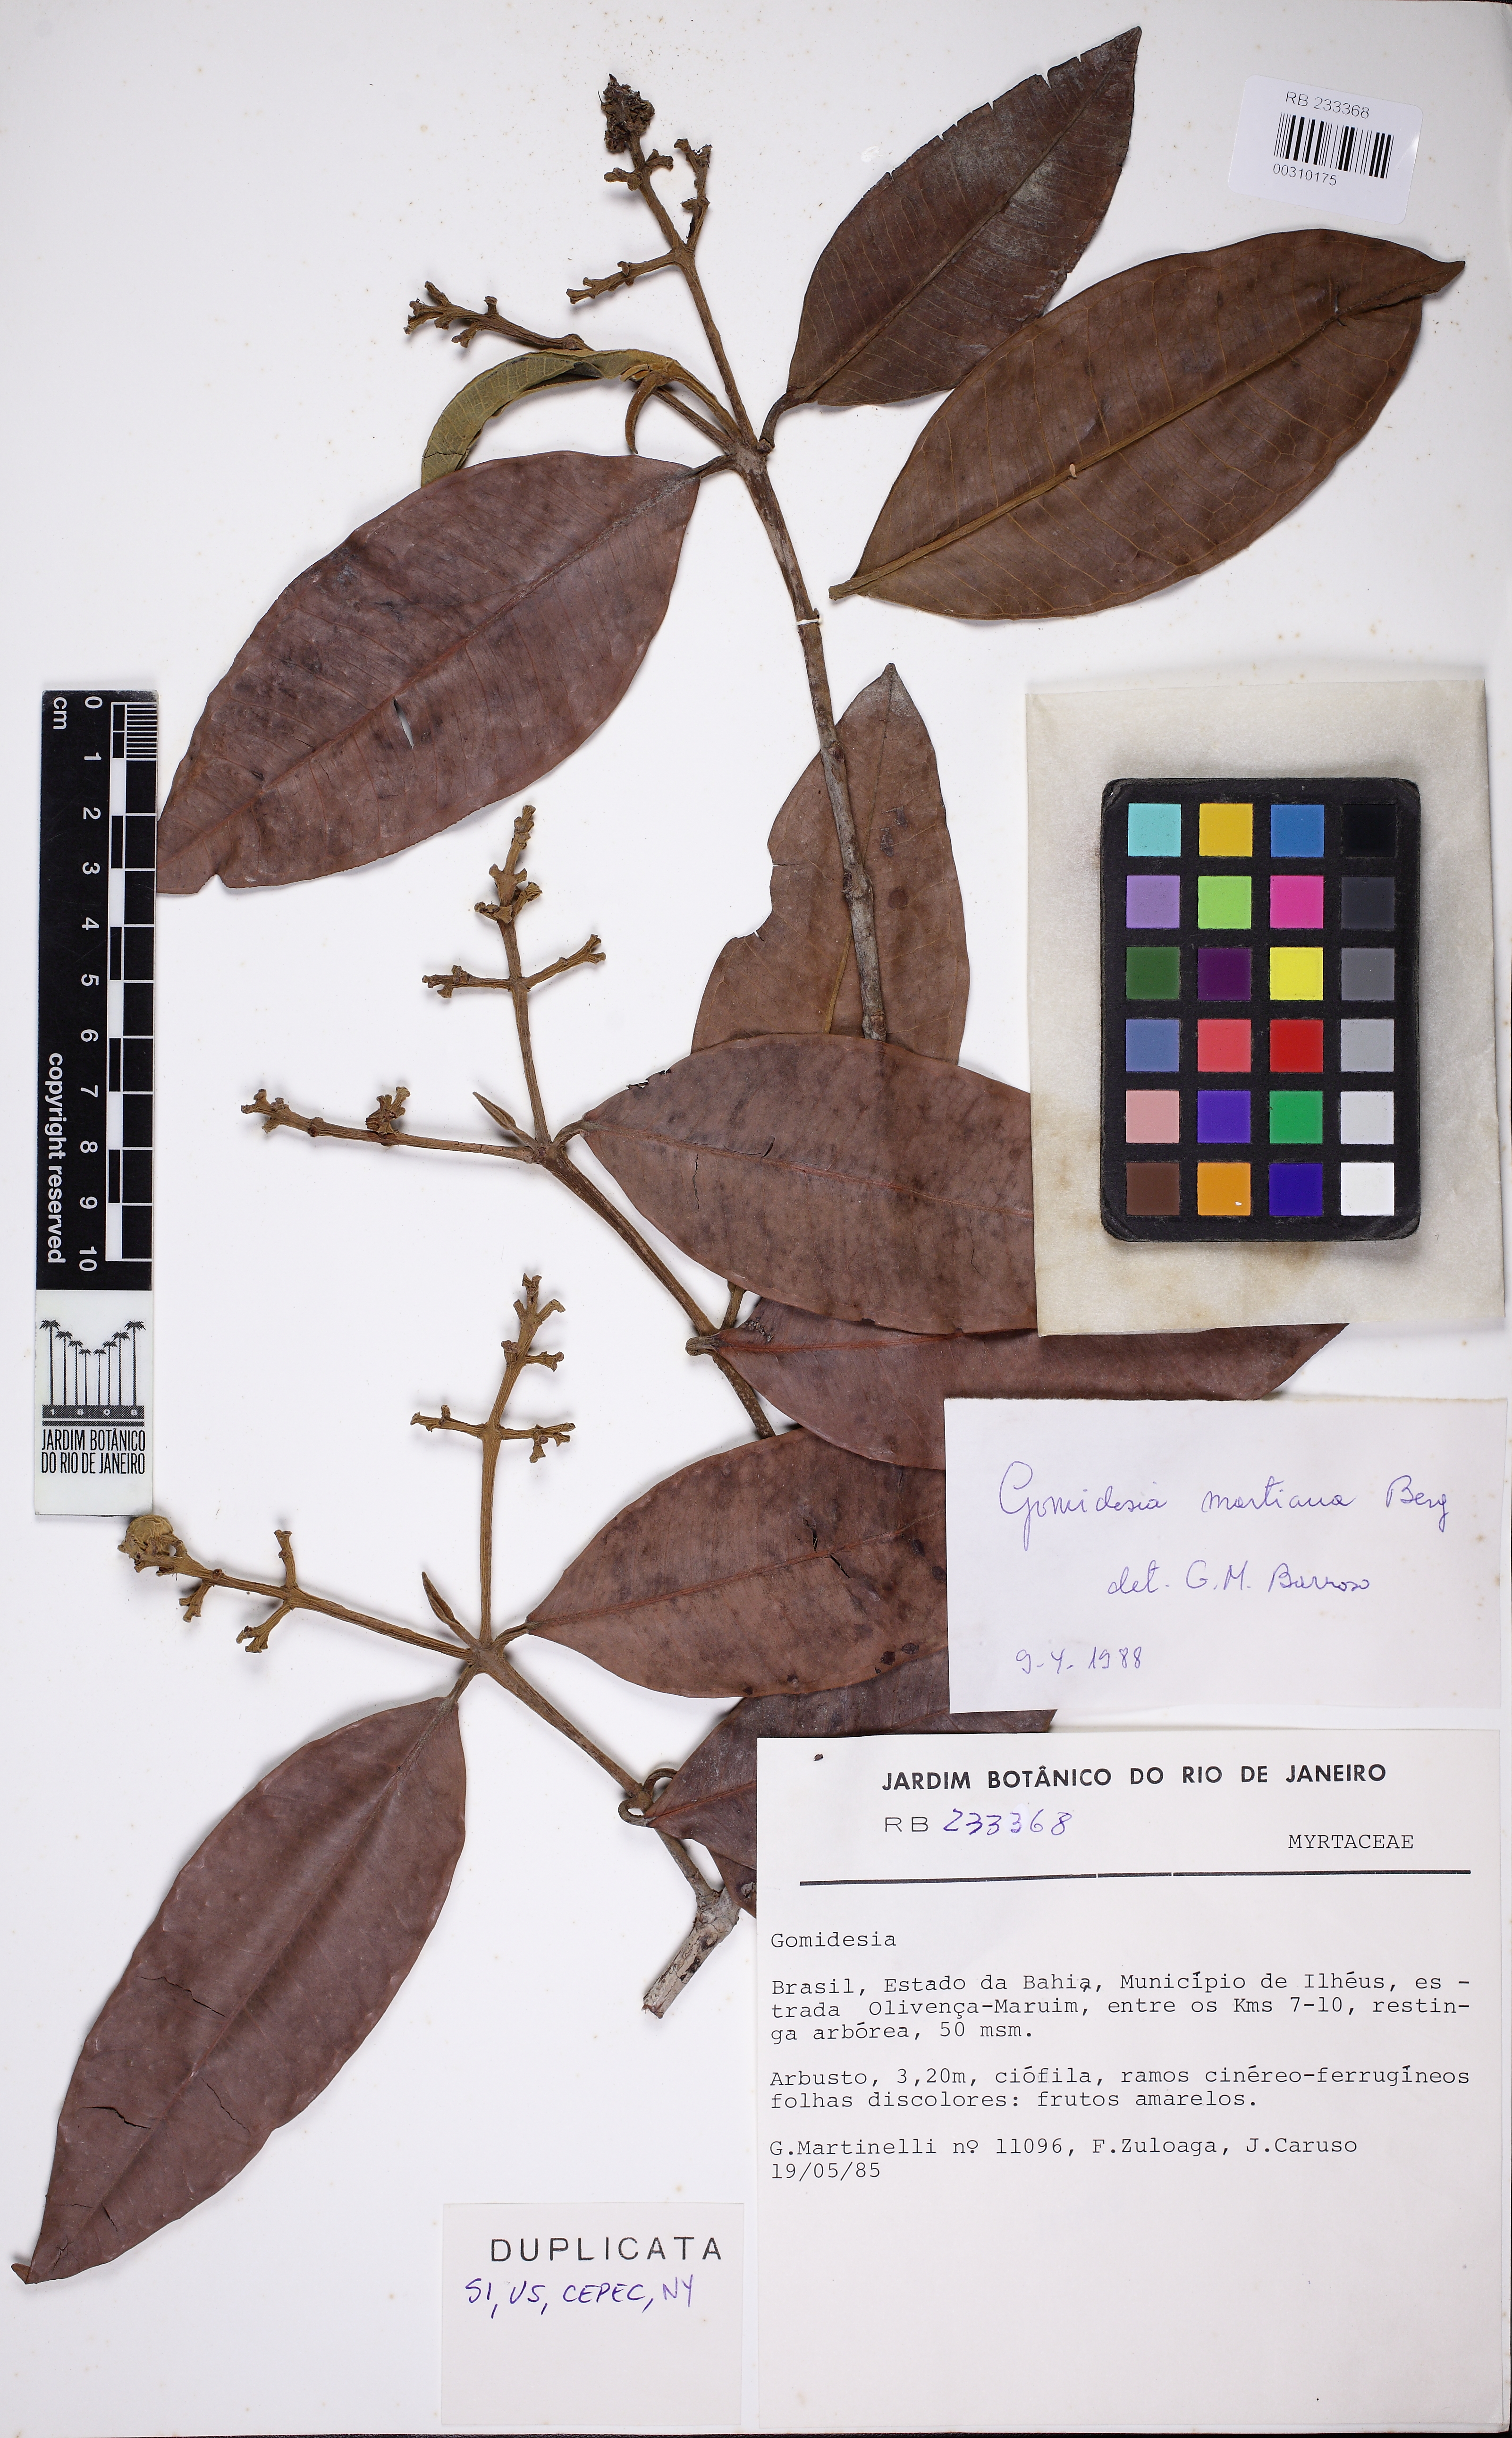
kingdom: Plantae
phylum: Tracheophyta
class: Magnoliopsida
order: Myrtales
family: Myrtaceae
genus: Myrcia
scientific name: Myrcia vittoriana
